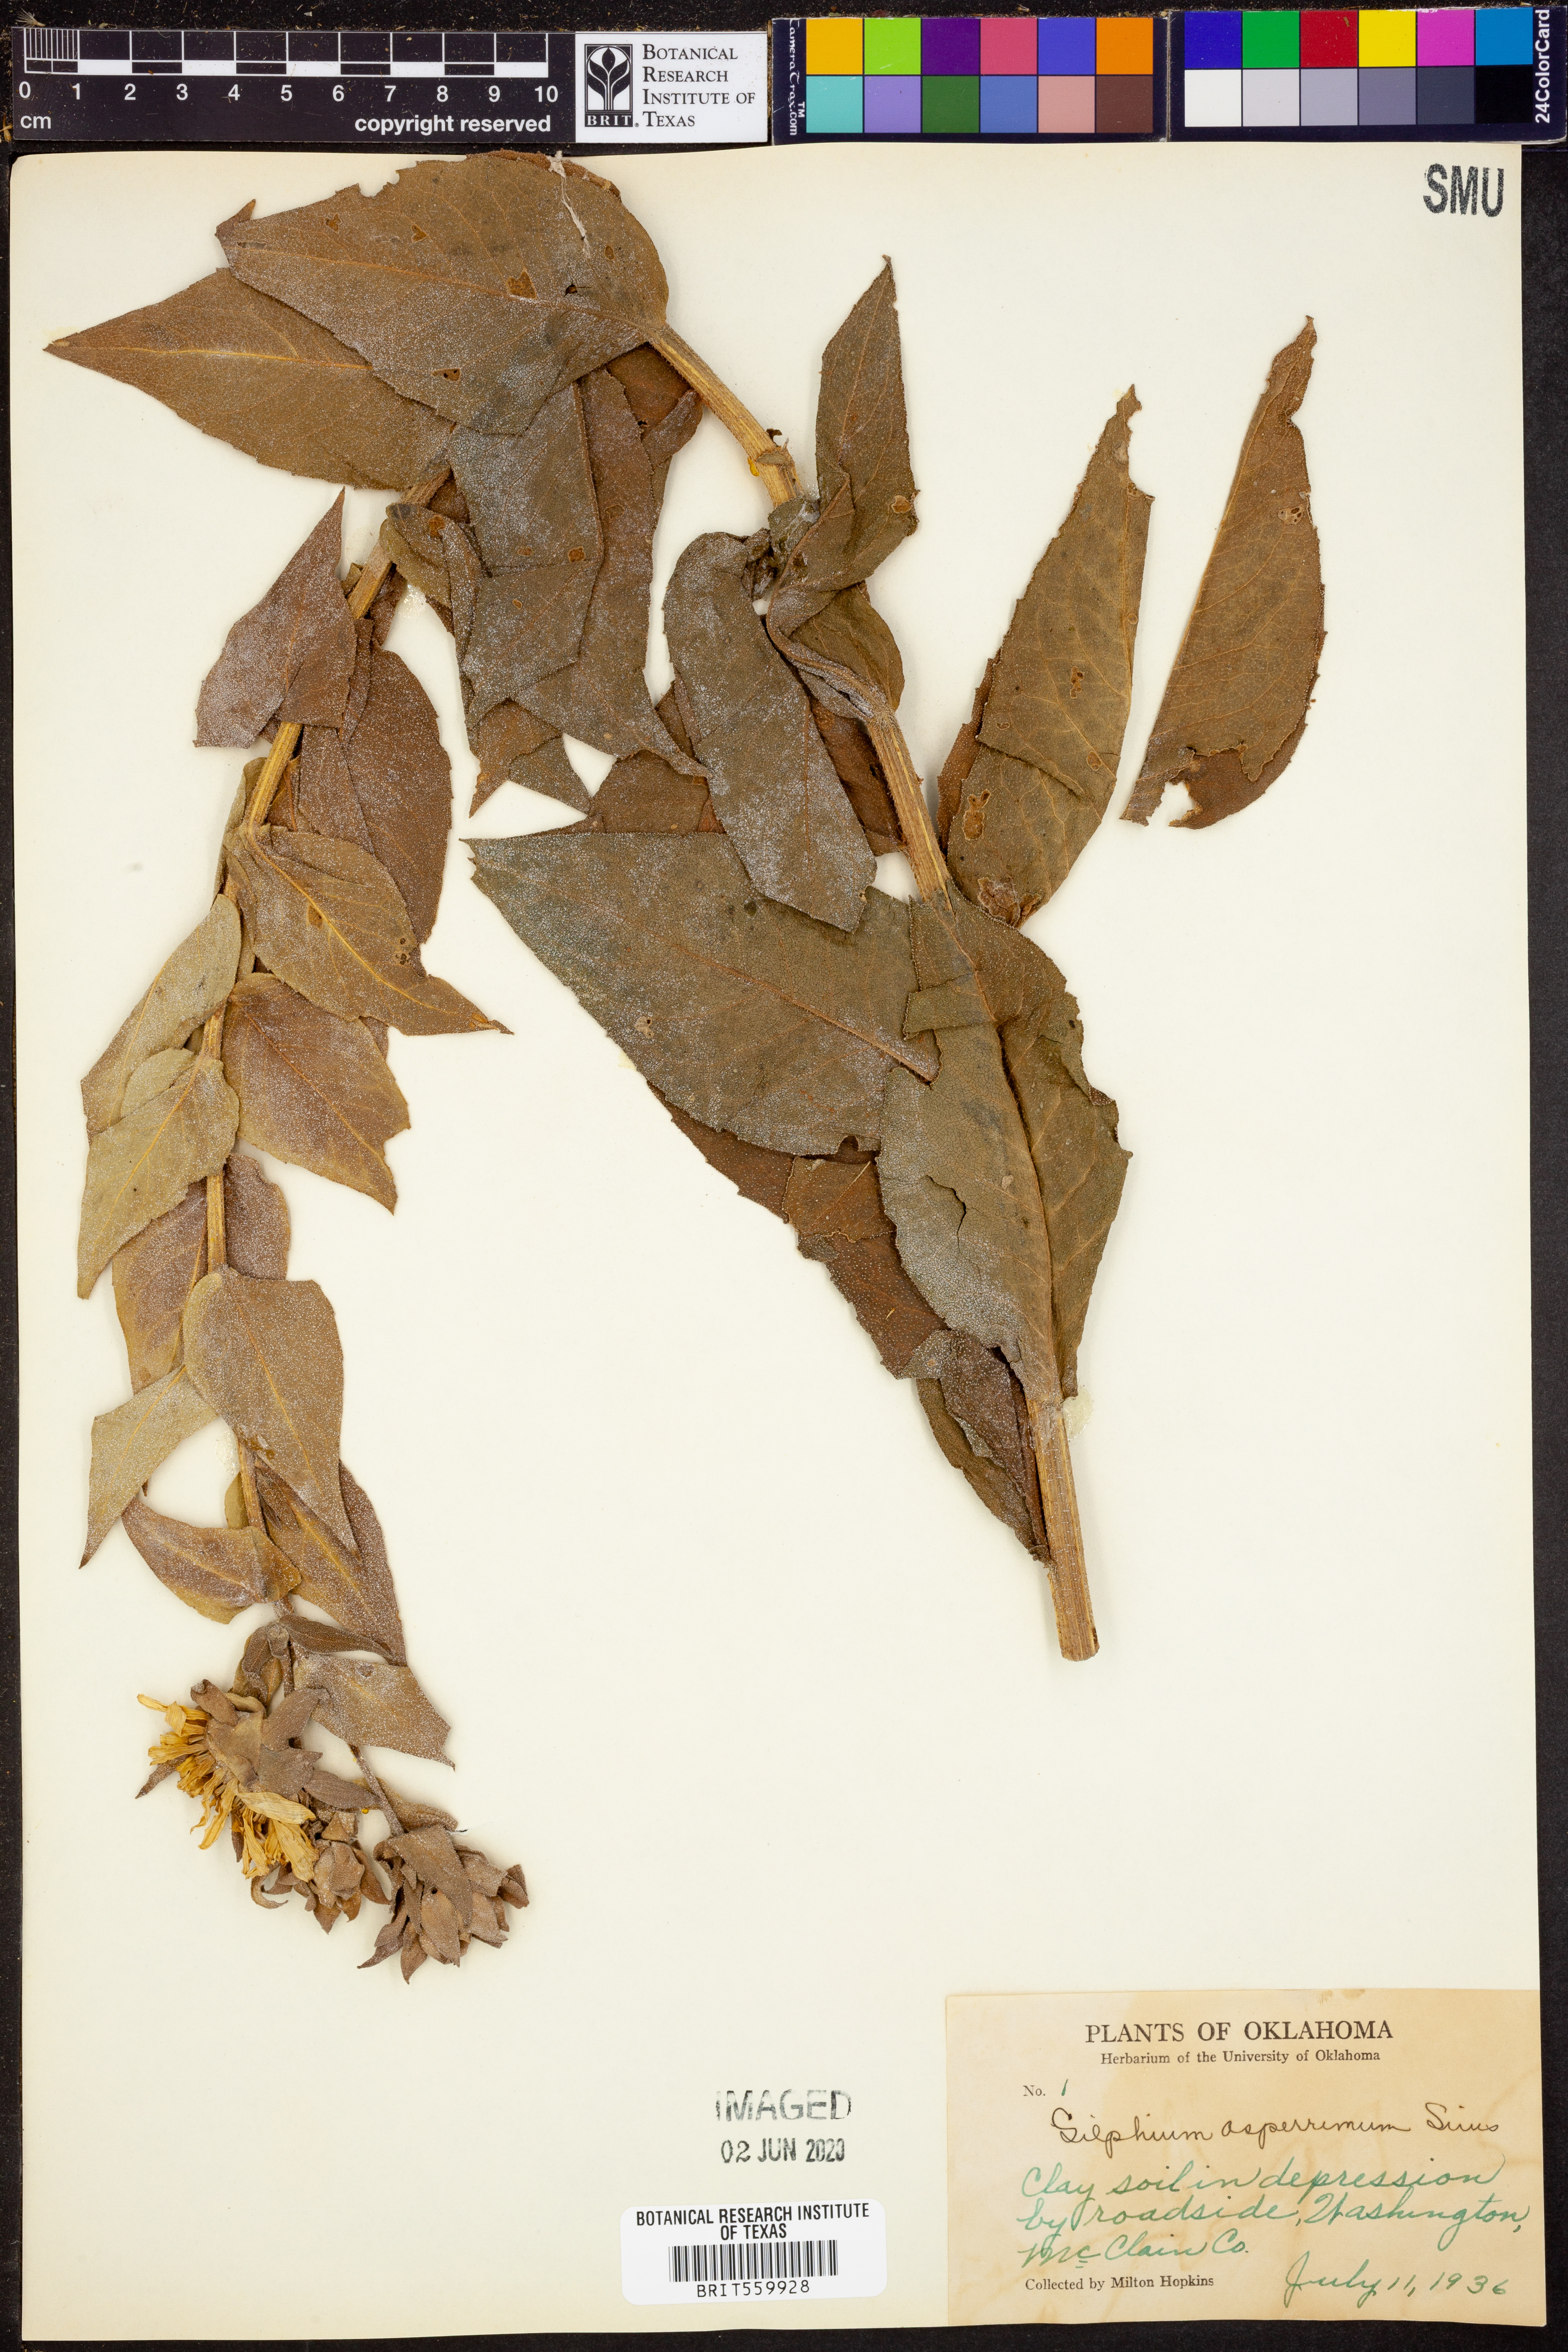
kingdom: Plantae
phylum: Tracheophyta
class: Magnoliopsida
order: Asterales
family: Asteraceae
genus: Silphium
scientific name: Silphium asperrimum
